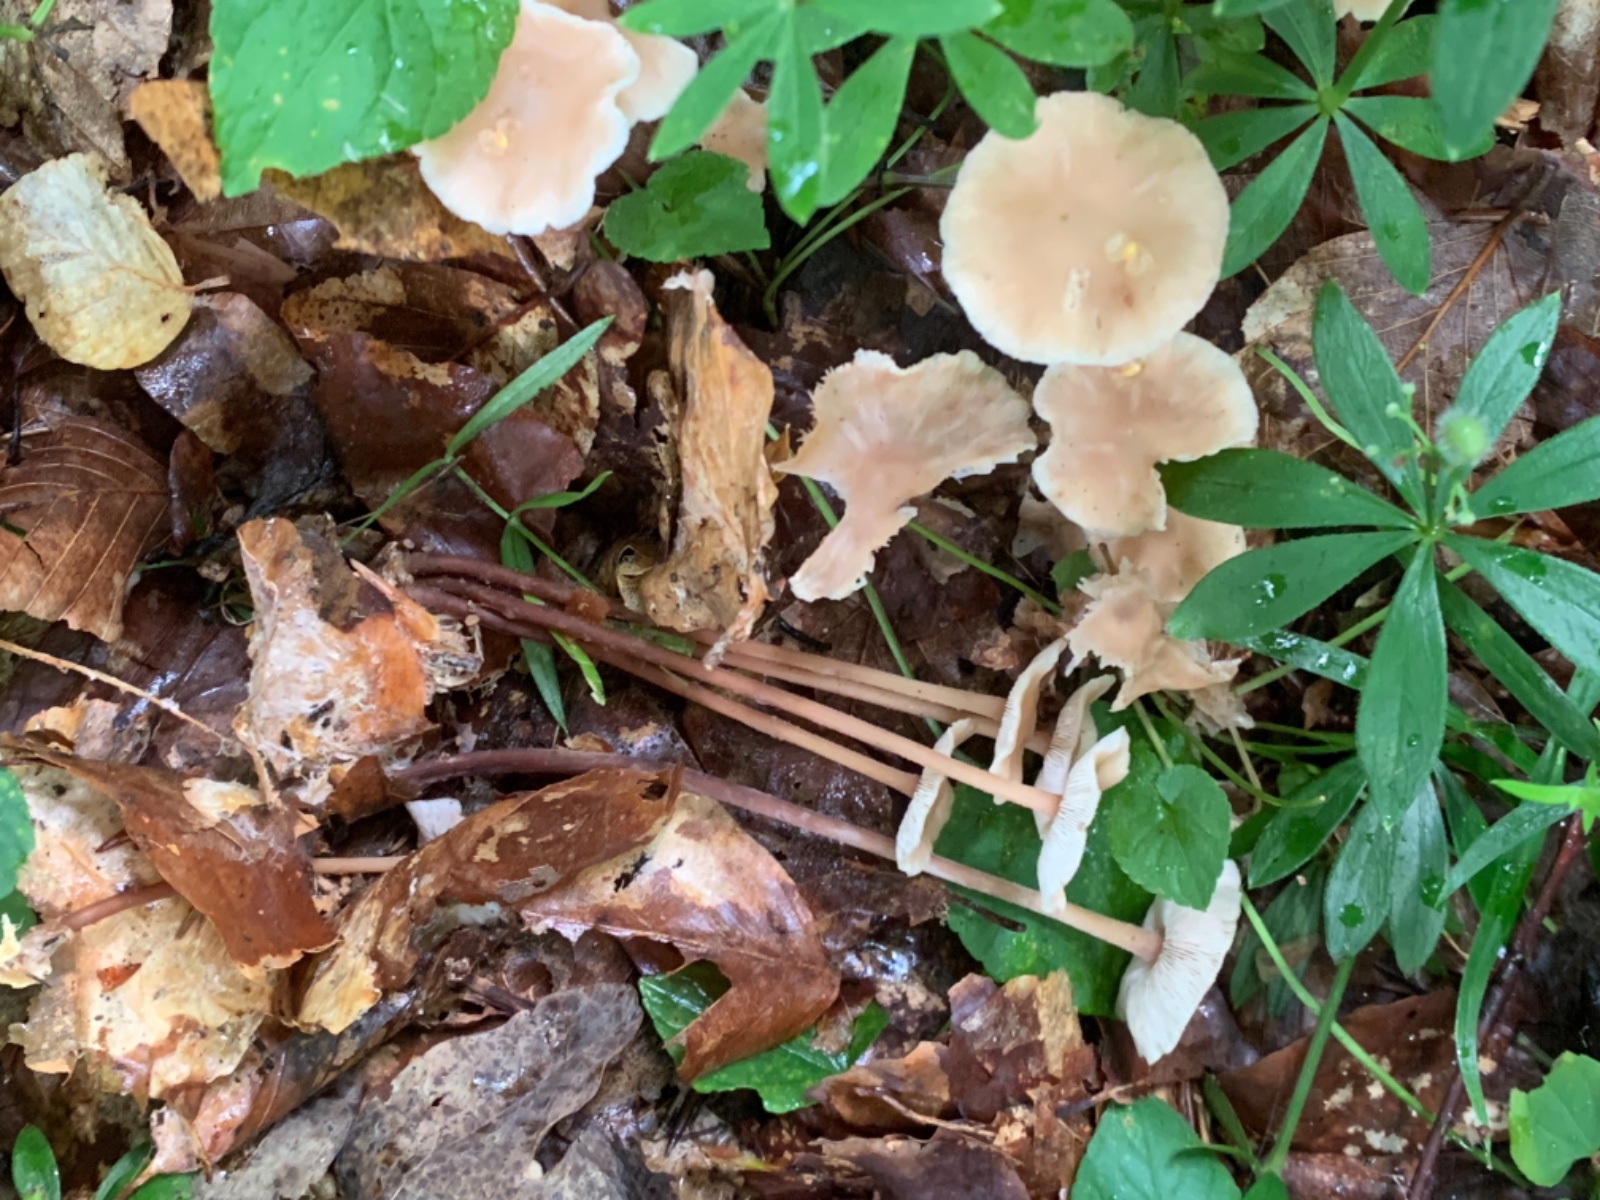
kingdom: Fungi
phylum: Basidiomycota
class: Agaricomycetes
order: Agaricales
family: Omphalotaceae
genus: Collybiopsis
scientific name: Collybiopsis confluens
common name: knippe-fladhat
